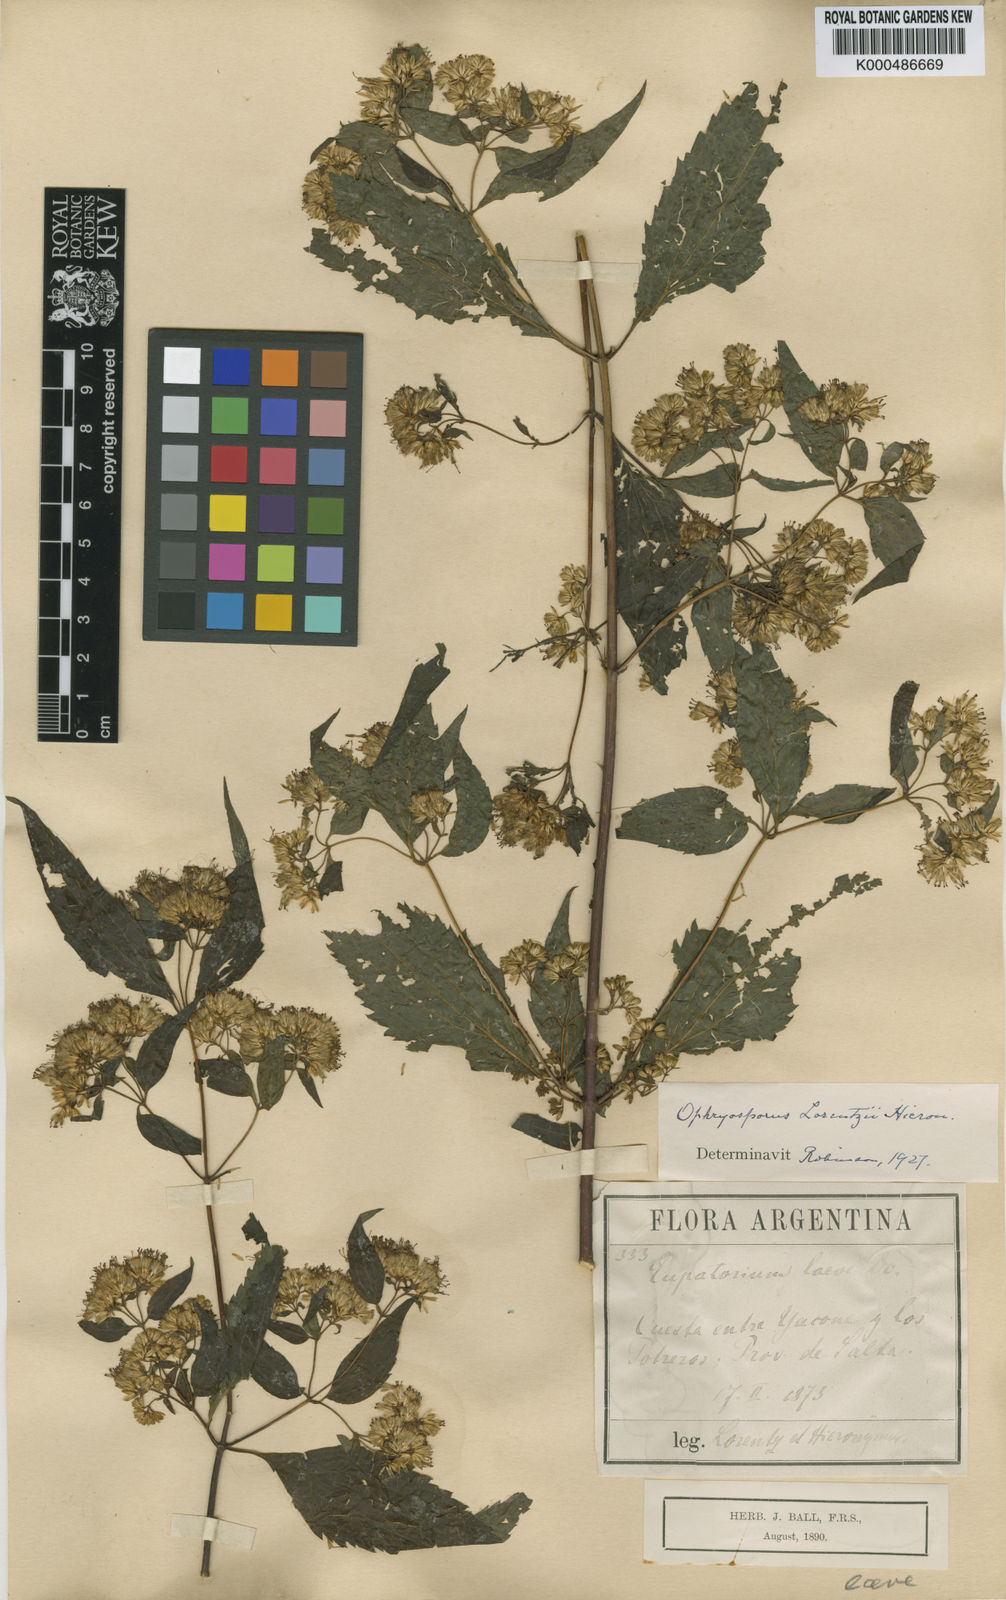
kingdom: Plantae
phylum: Tracheophyta
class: Magnoliopsida
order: Asterales
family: Asteraceae
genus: Ophryosporus
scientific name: Ophryosporus lorentzii
